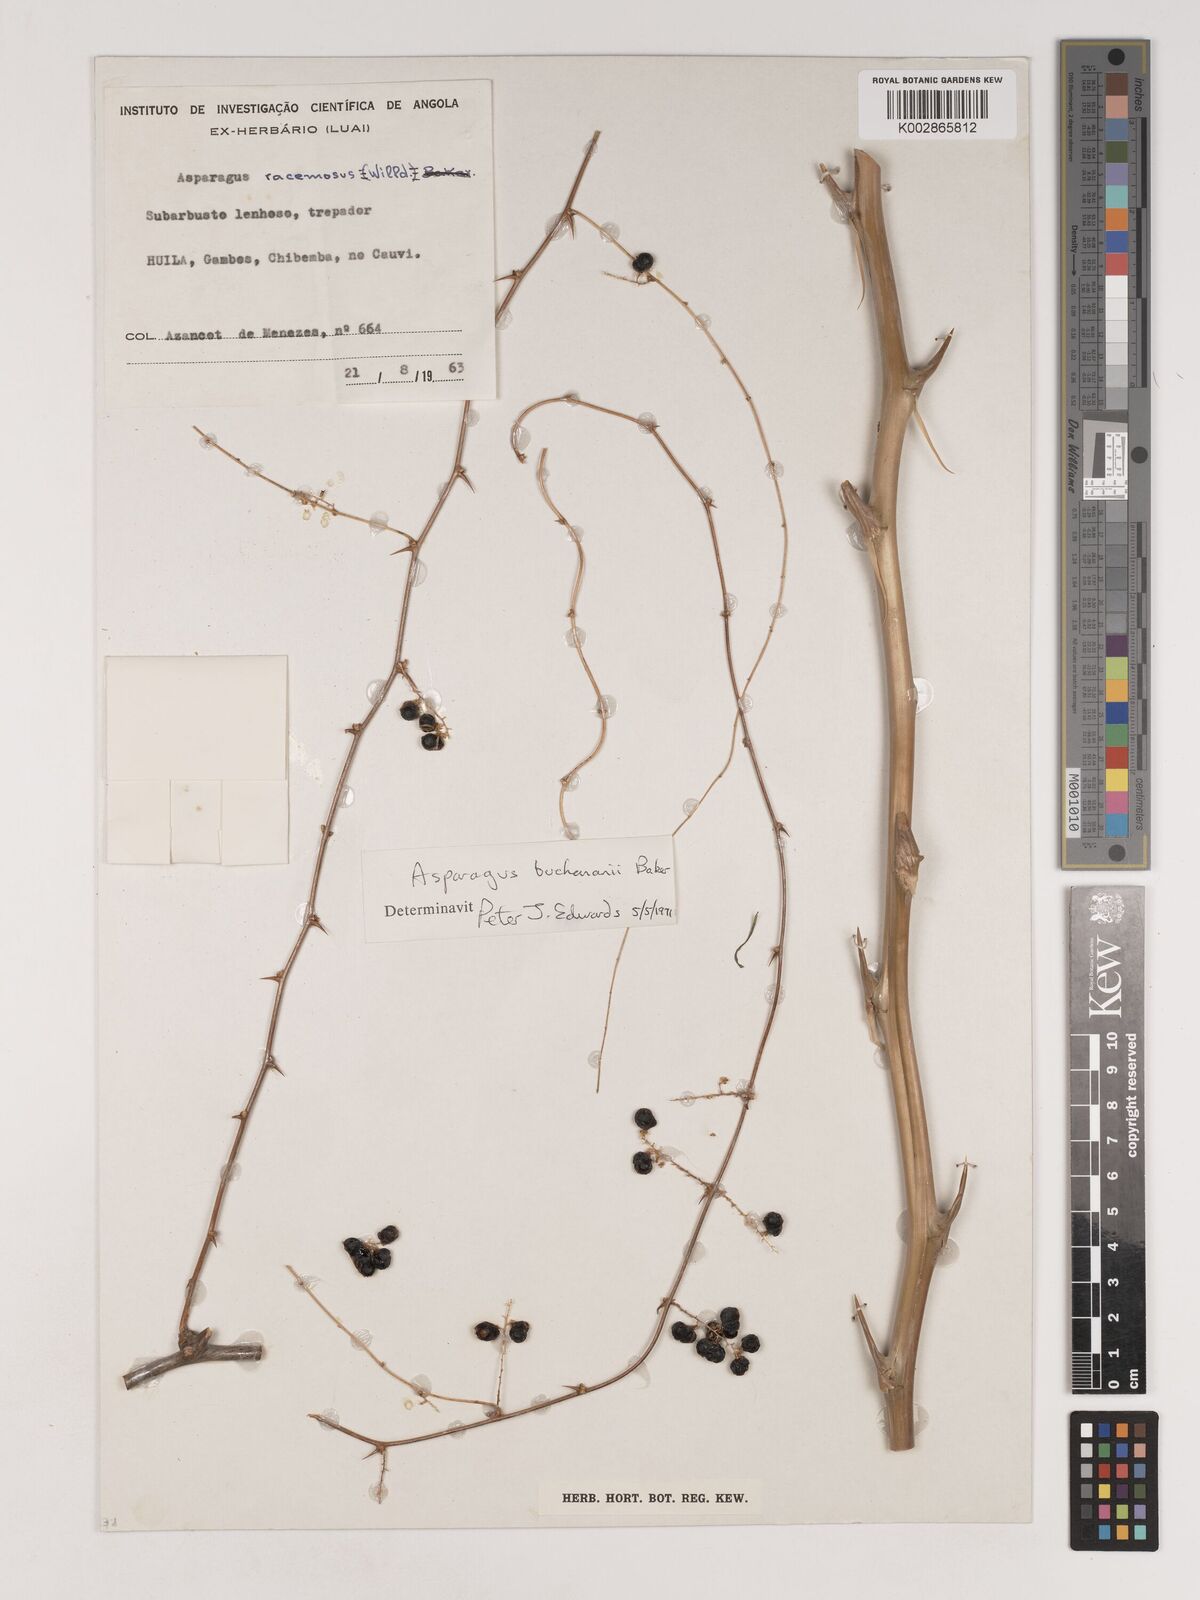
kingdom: Plantae
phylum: Tracheophyta
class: Liliopsida
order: Asparagales
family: Asparagaceae
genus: Asparagus
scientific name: Asparagus buchananii
